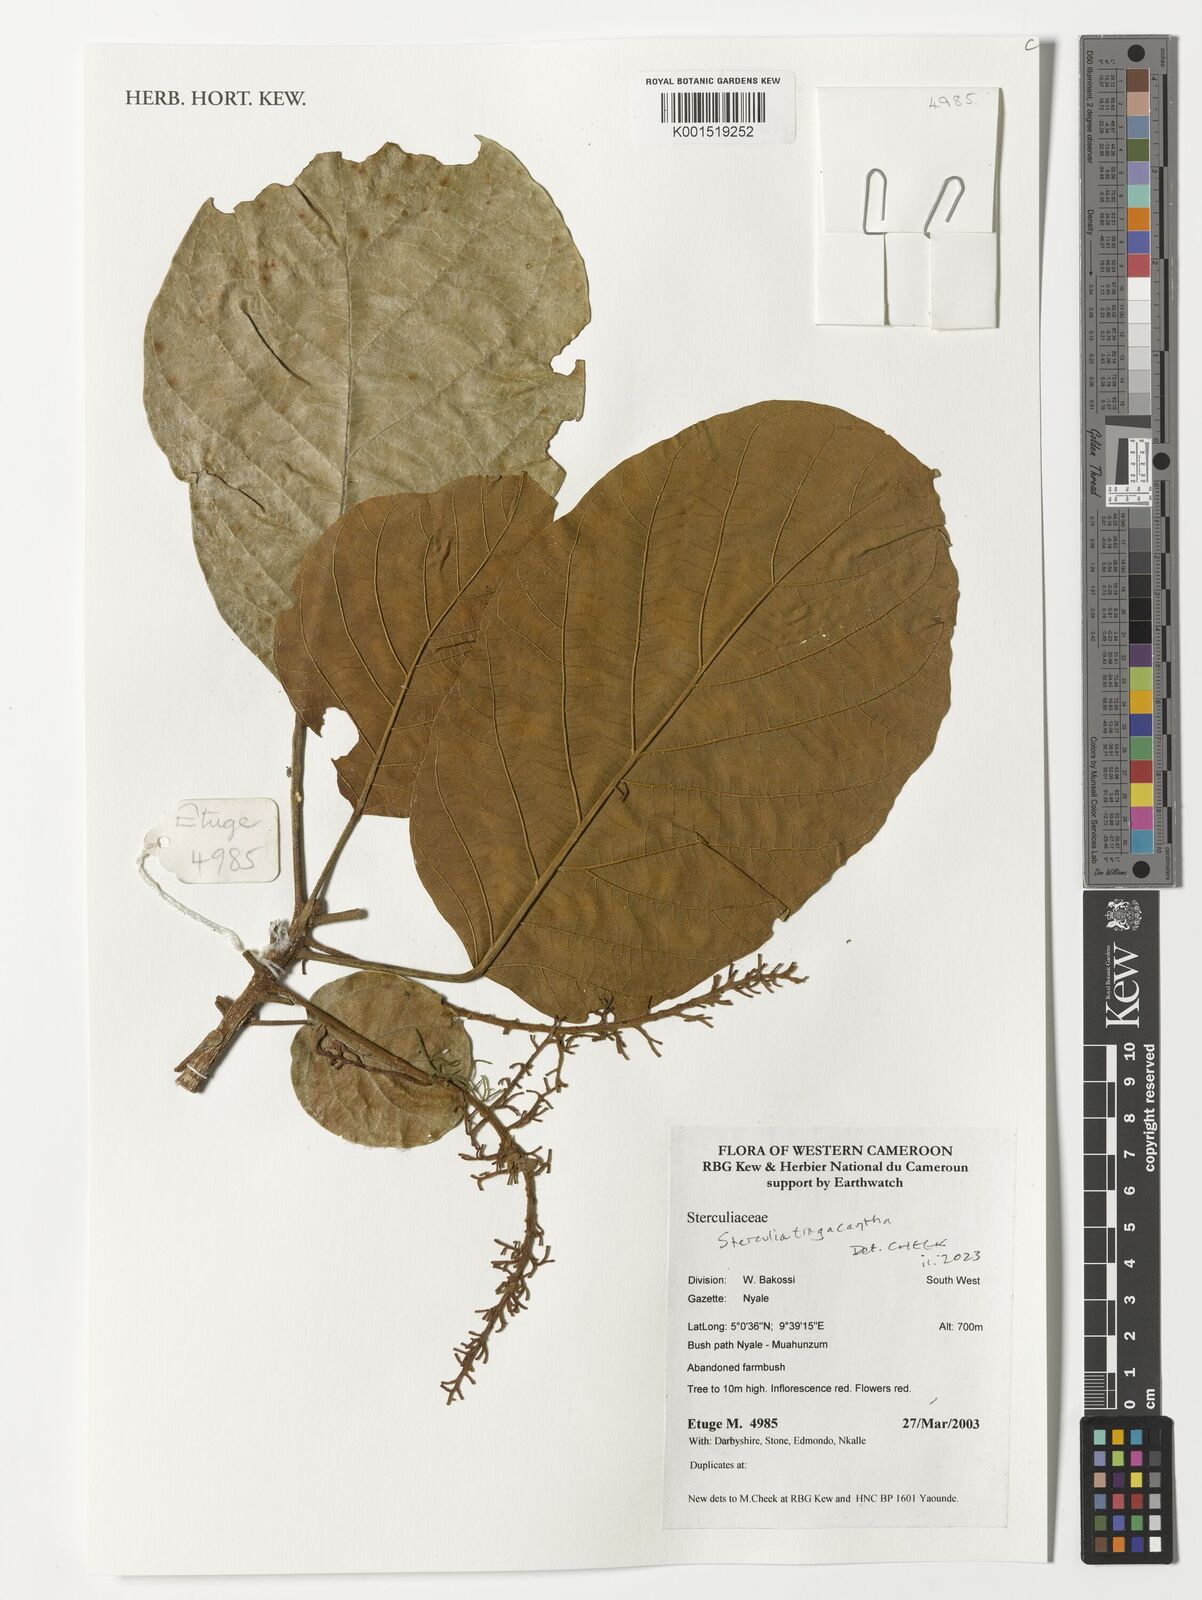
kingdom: Plantae
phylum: Tracheophyta
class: Magnoliopsida
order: Malvales
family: Malvaceae
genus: Sterculia
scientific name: Sterculia tragacantha
